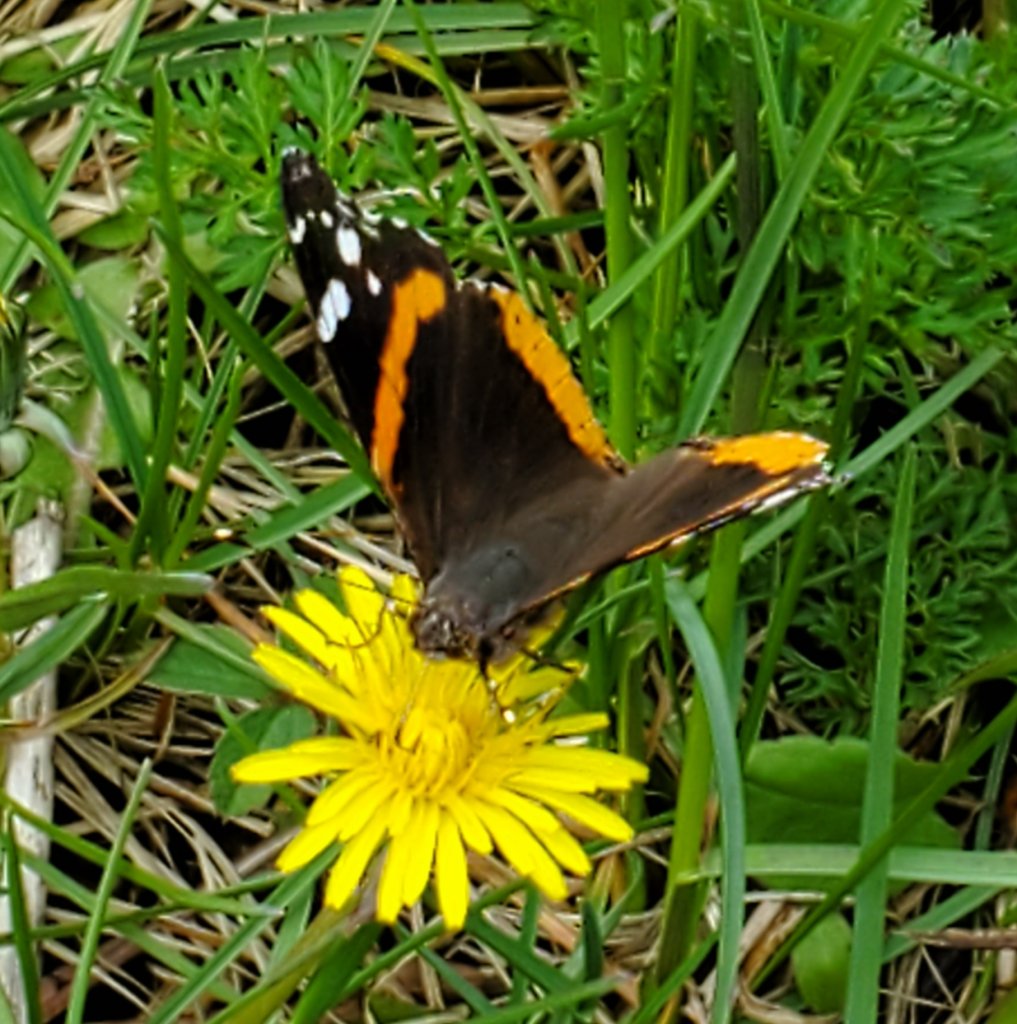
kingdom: Animalia
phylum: Arthropoda
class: Insecta
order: Lepidoptera
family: Nymphalidae
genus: Vanessa
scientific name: Vanessa atalanta
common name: Red Admiral
